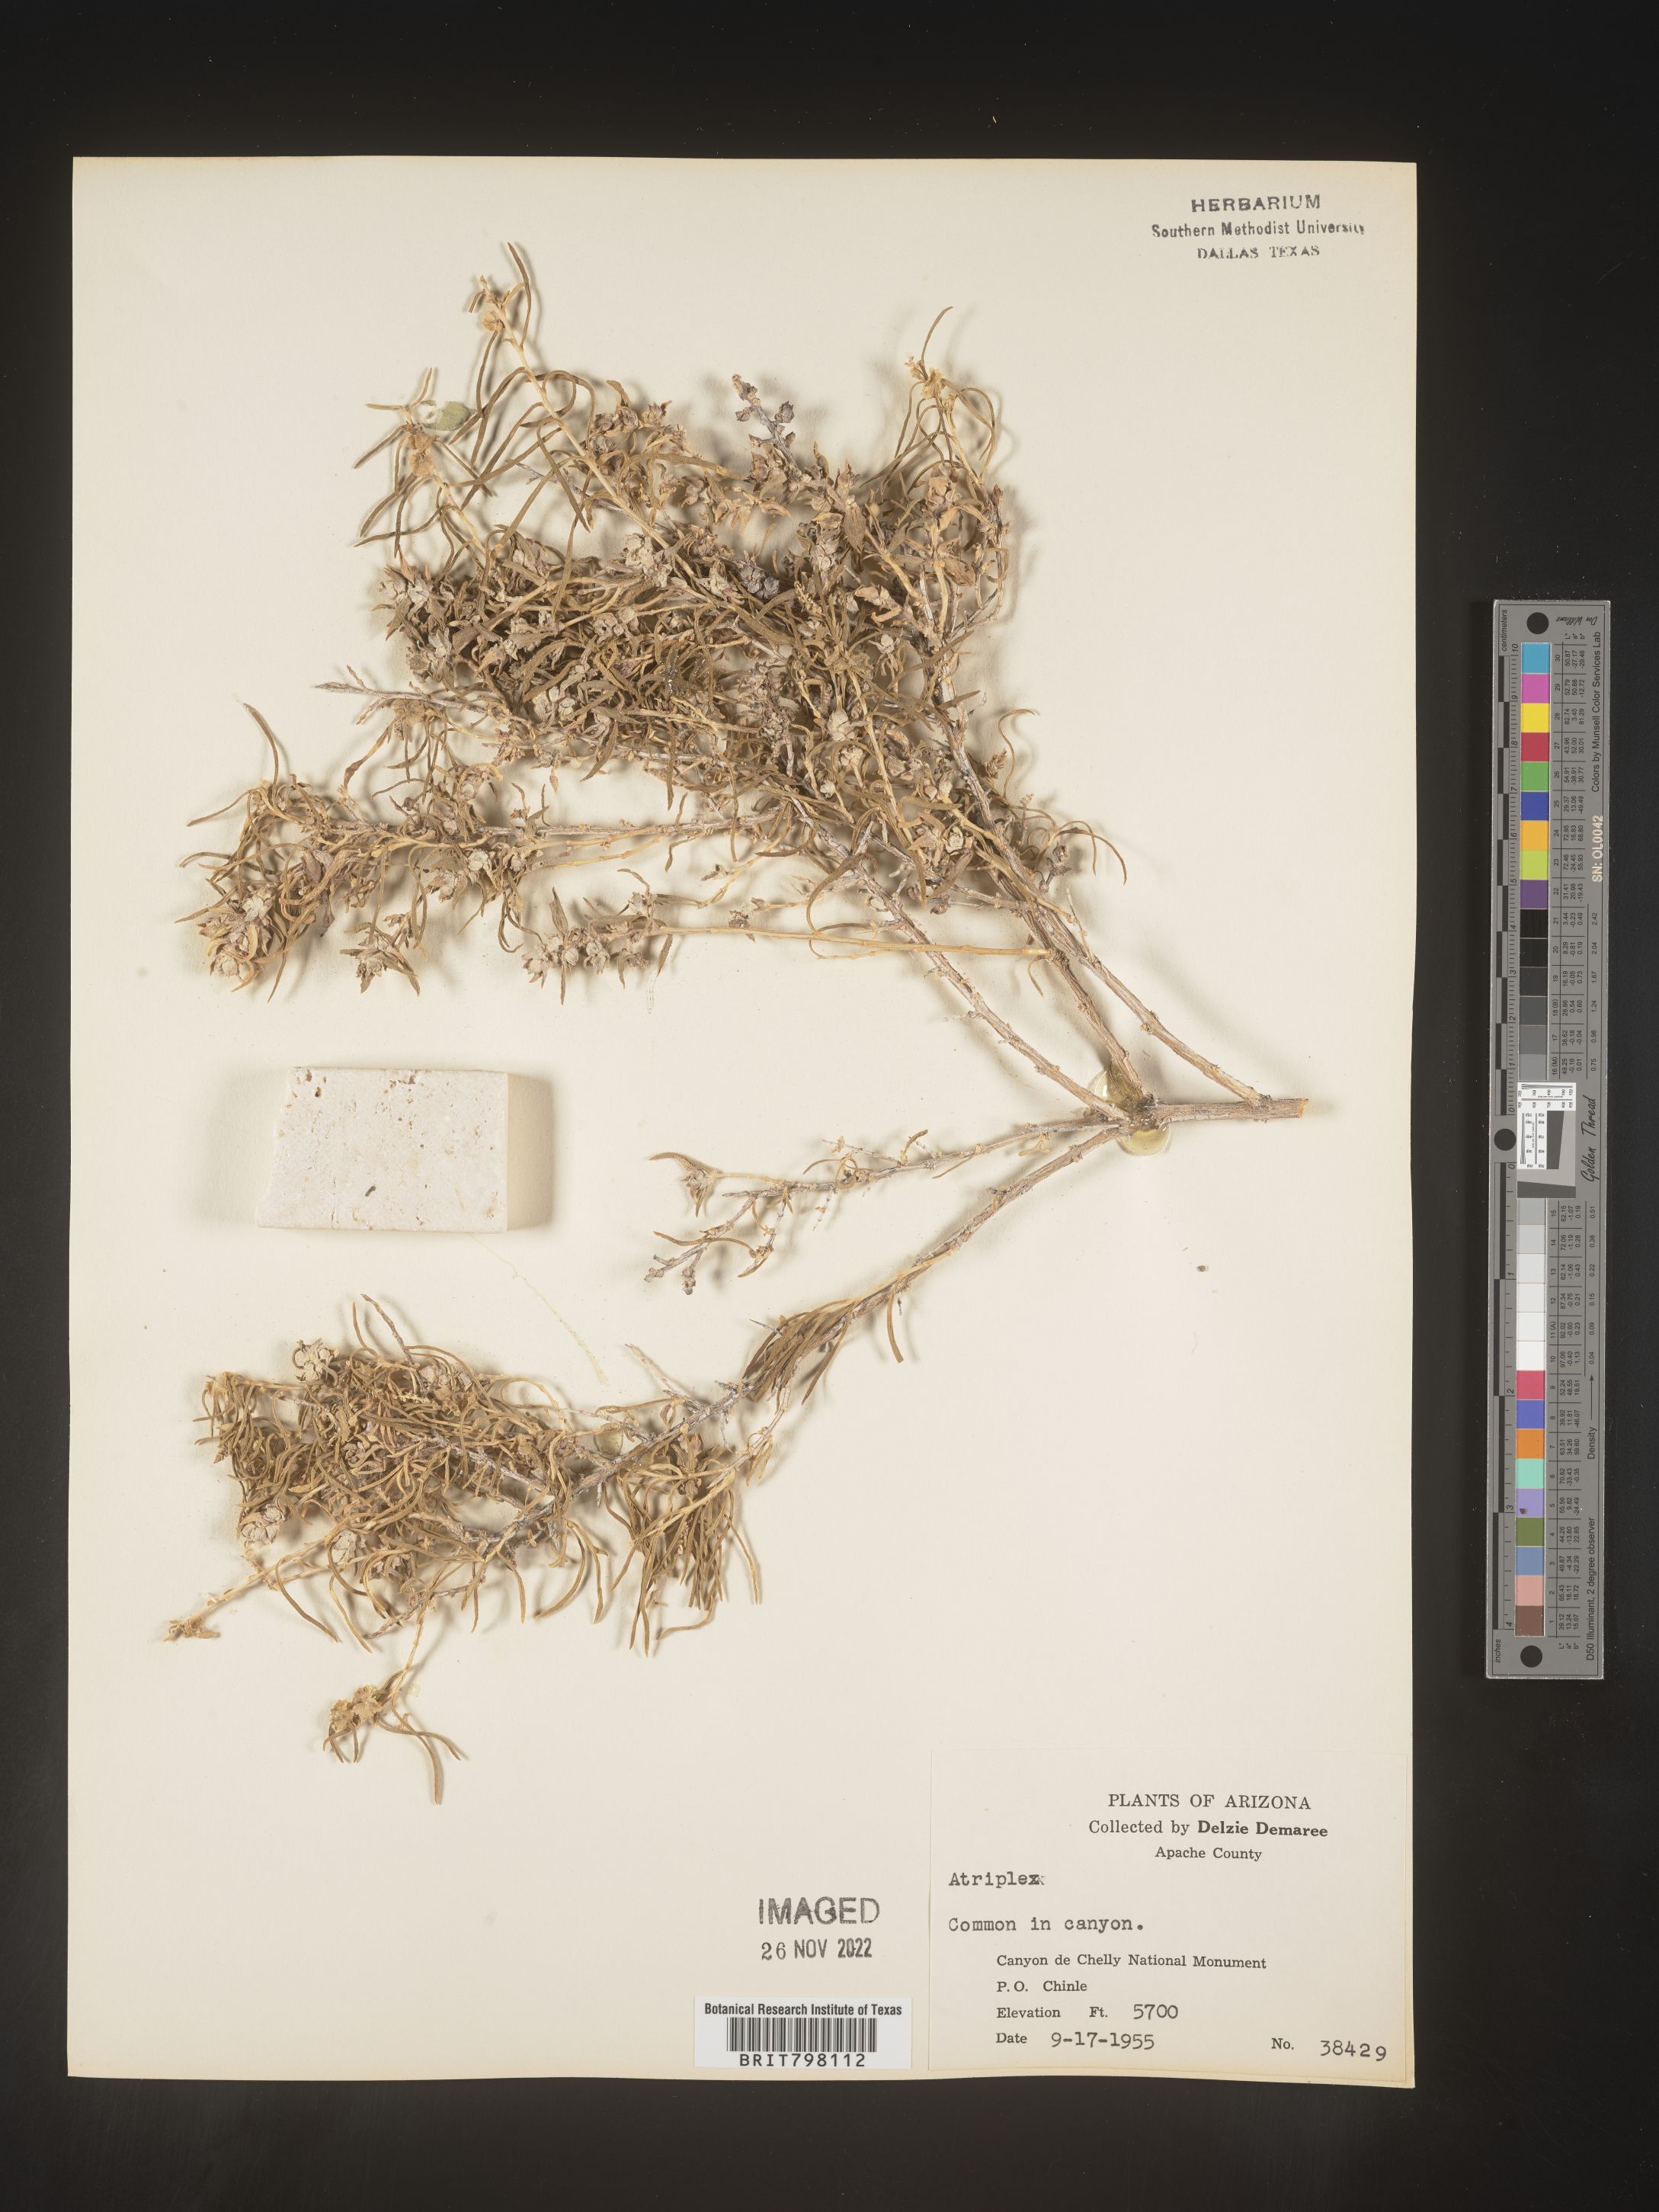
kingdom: Plantae
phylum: Tracheophyta
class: Magnoliopsida
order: Caryophyllales
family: Amaranthaceae
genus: Atriplex
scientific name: Atriplex
